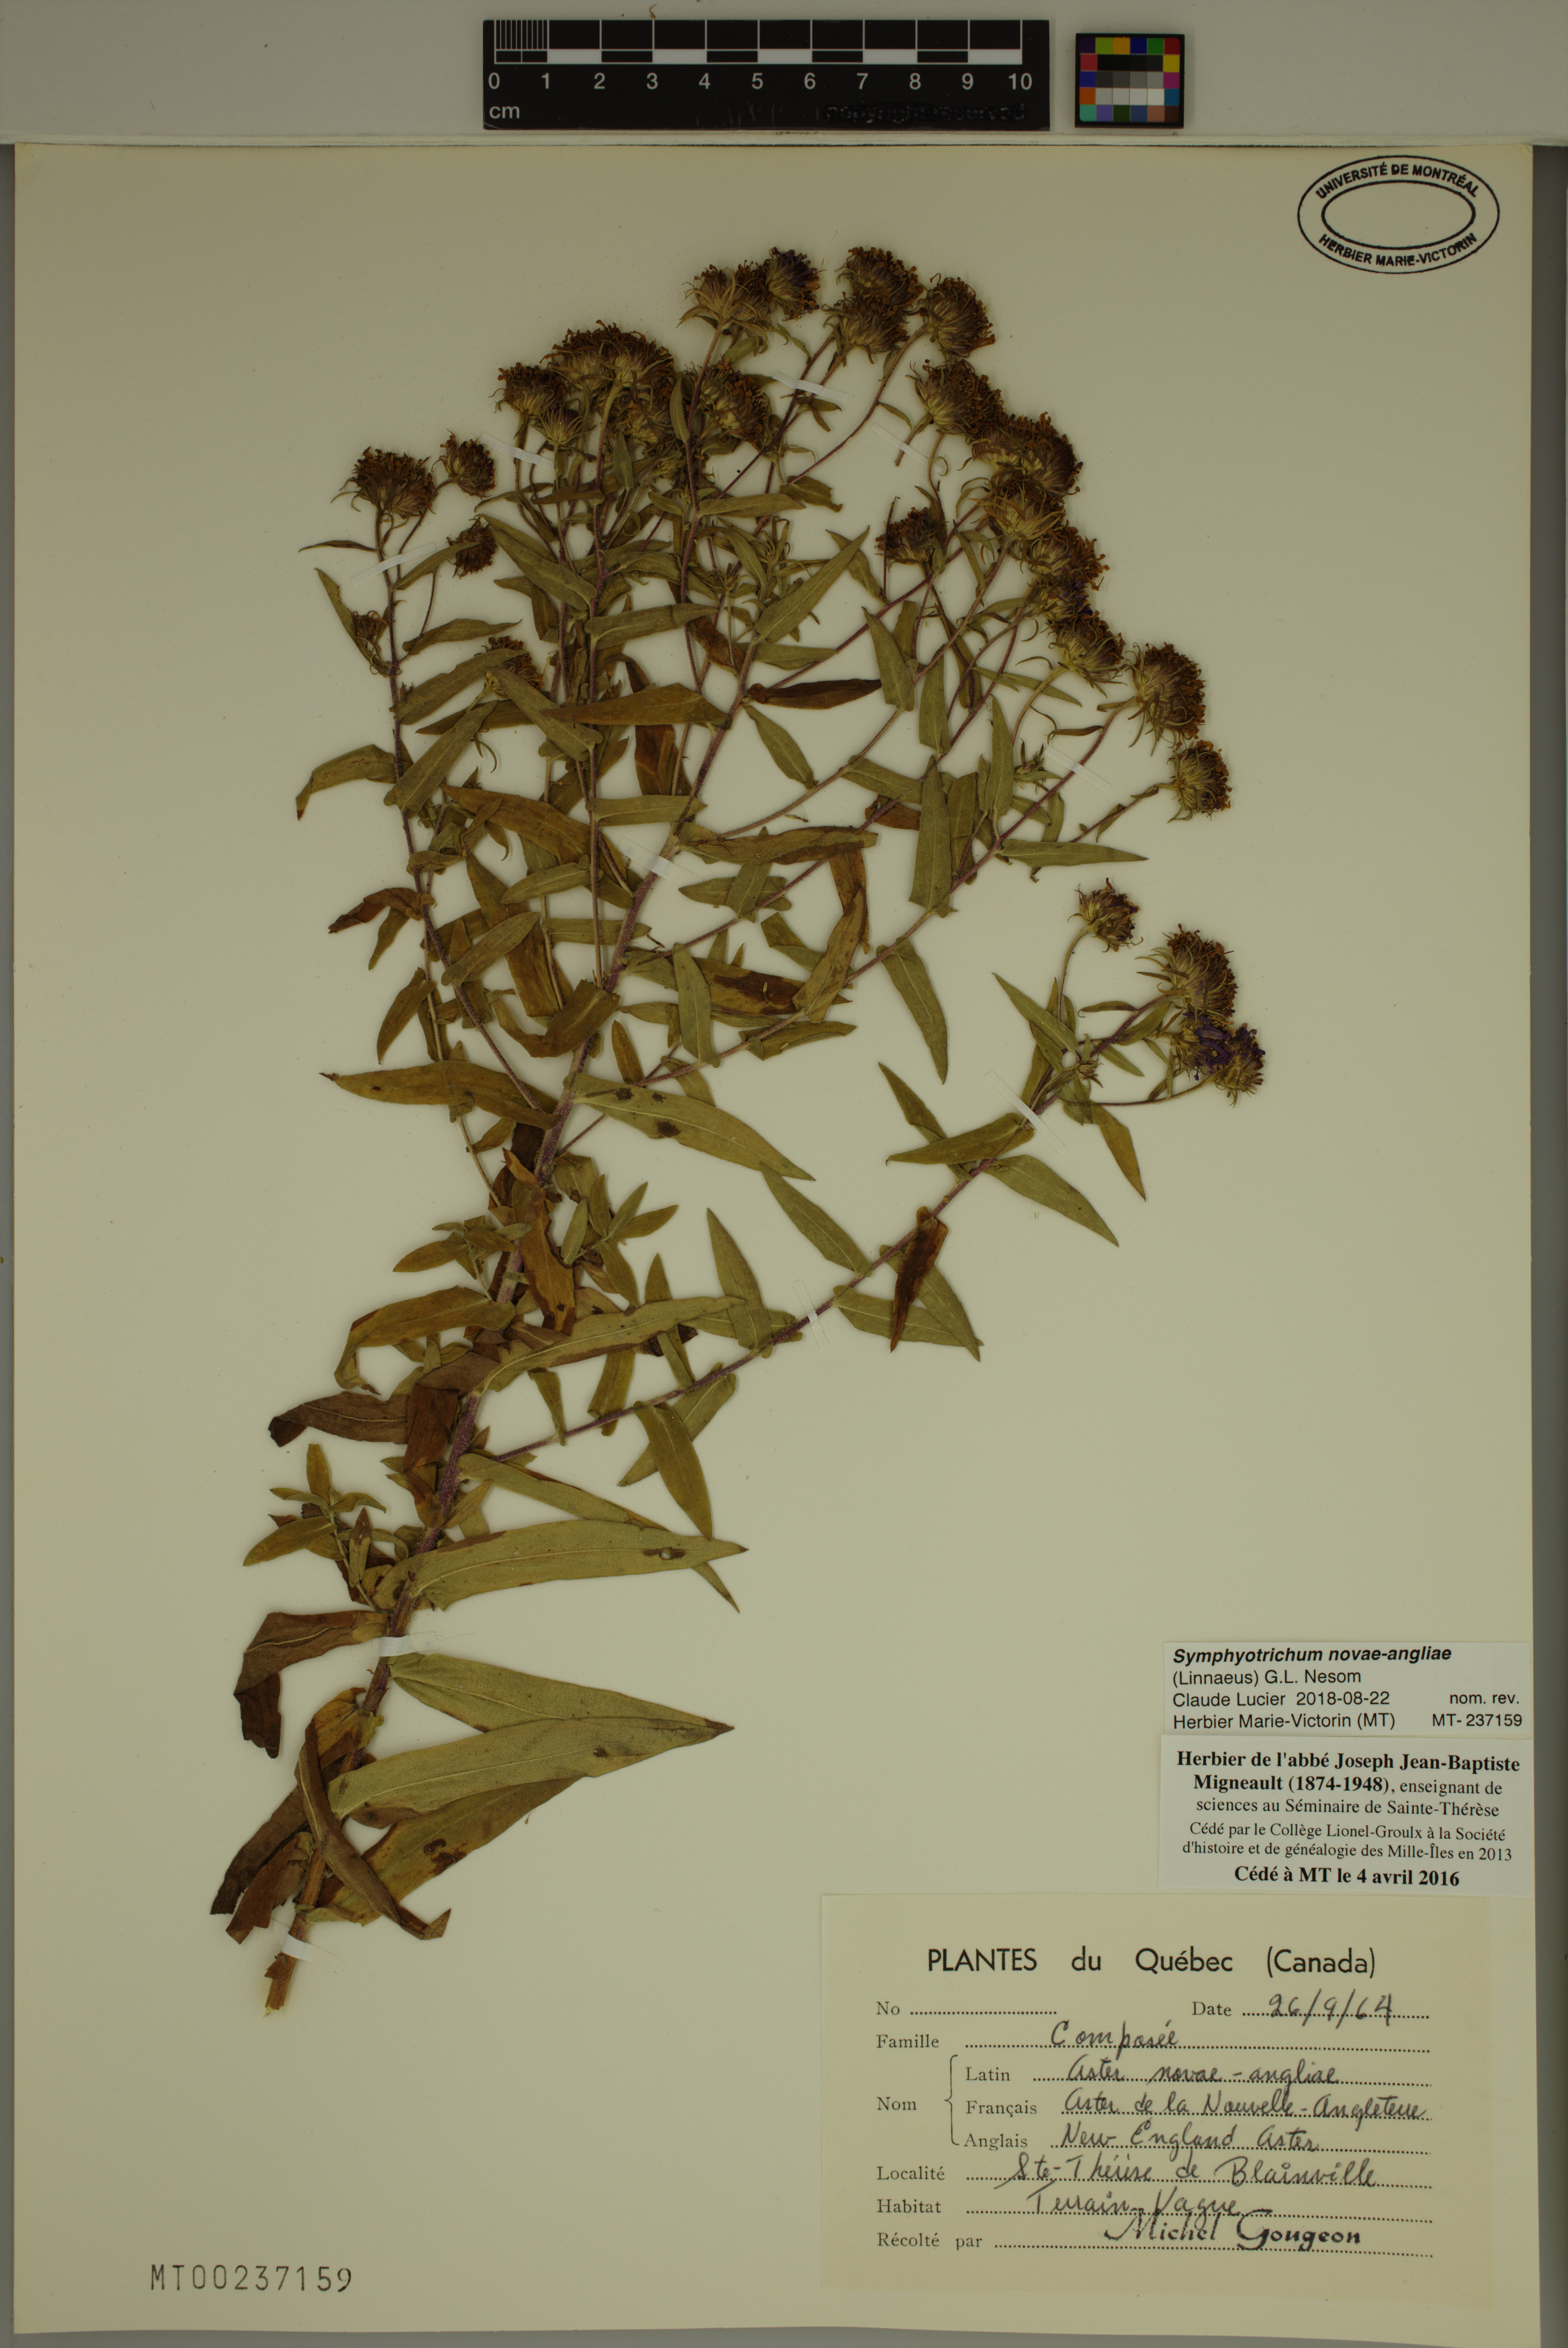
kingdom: Plantae
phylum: Tracheophyta
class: Magnoliopsida
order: Asterales
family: Asteraceae
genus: Symphyotrichum
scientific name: Symphyotrichum novae-angliae
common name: Michaelmas daisy
